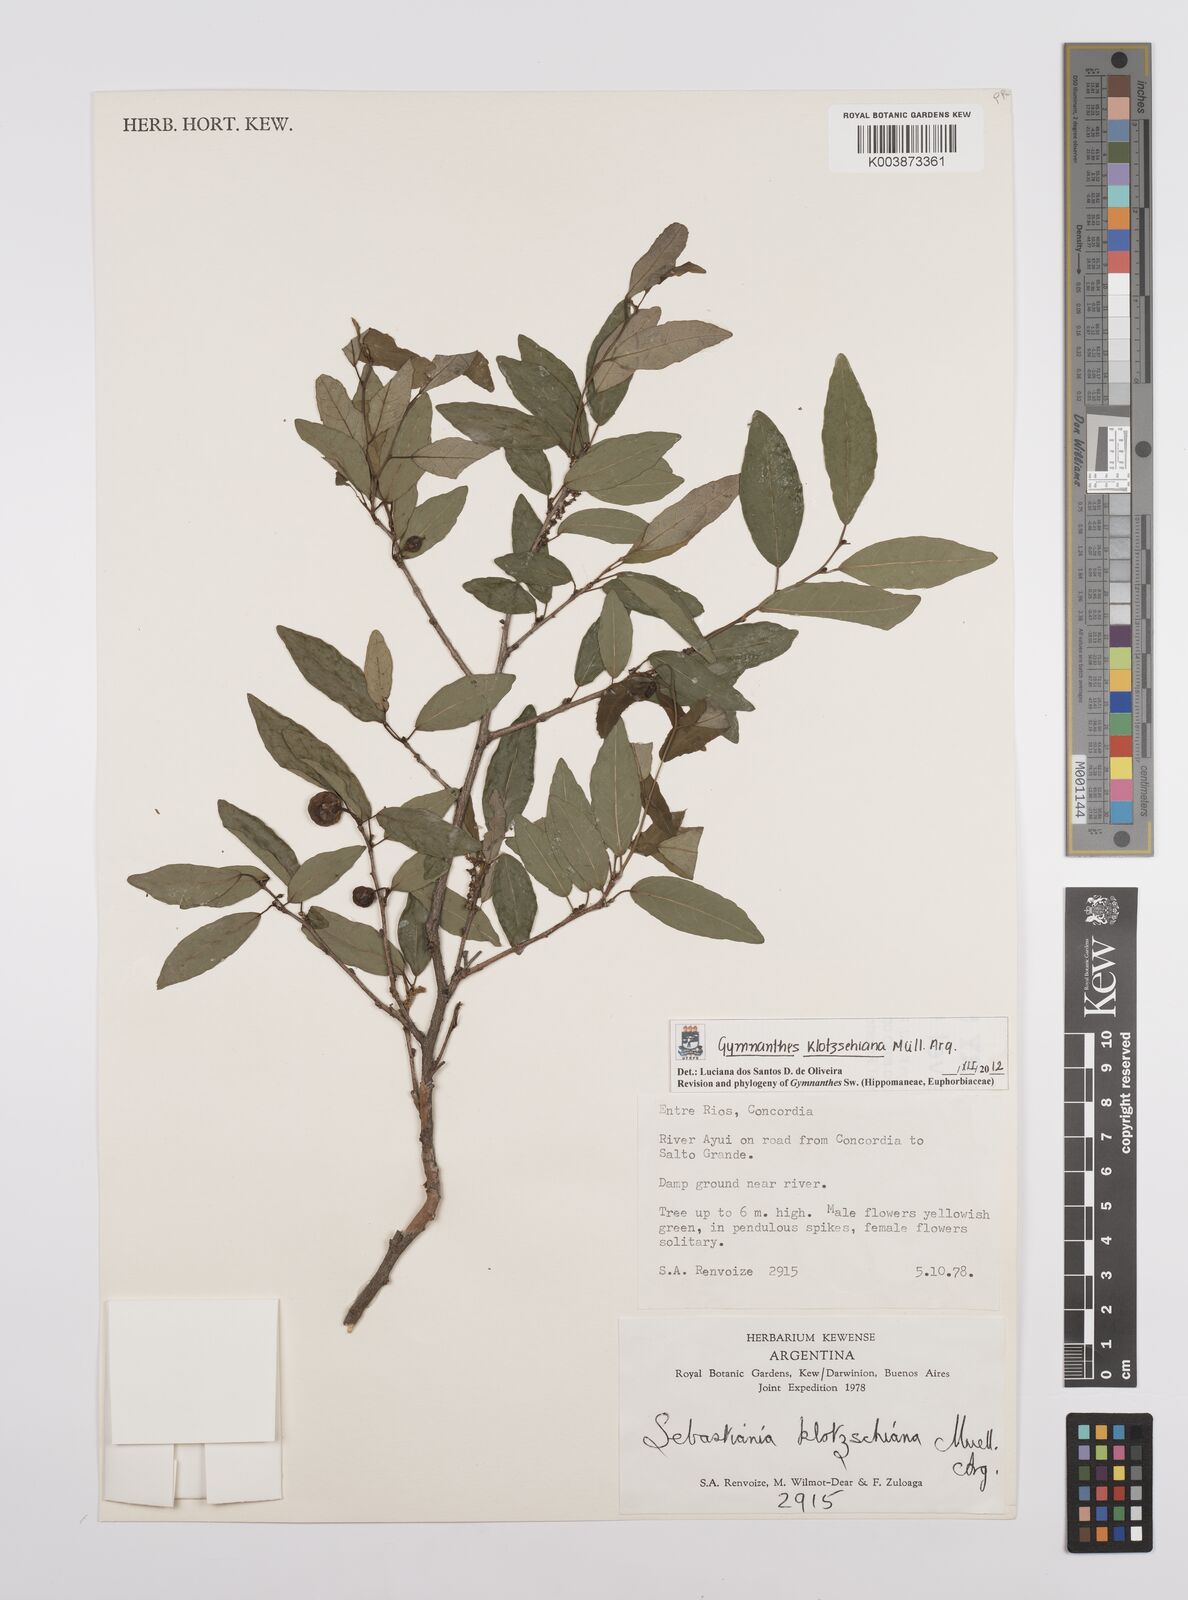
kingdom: Plantae
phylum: Tracheophyta
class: Magnoliopsida
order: Malpighiales
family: Euphorbiaceae
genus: Sebastiania
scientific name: Sebastiania klotzschiana
